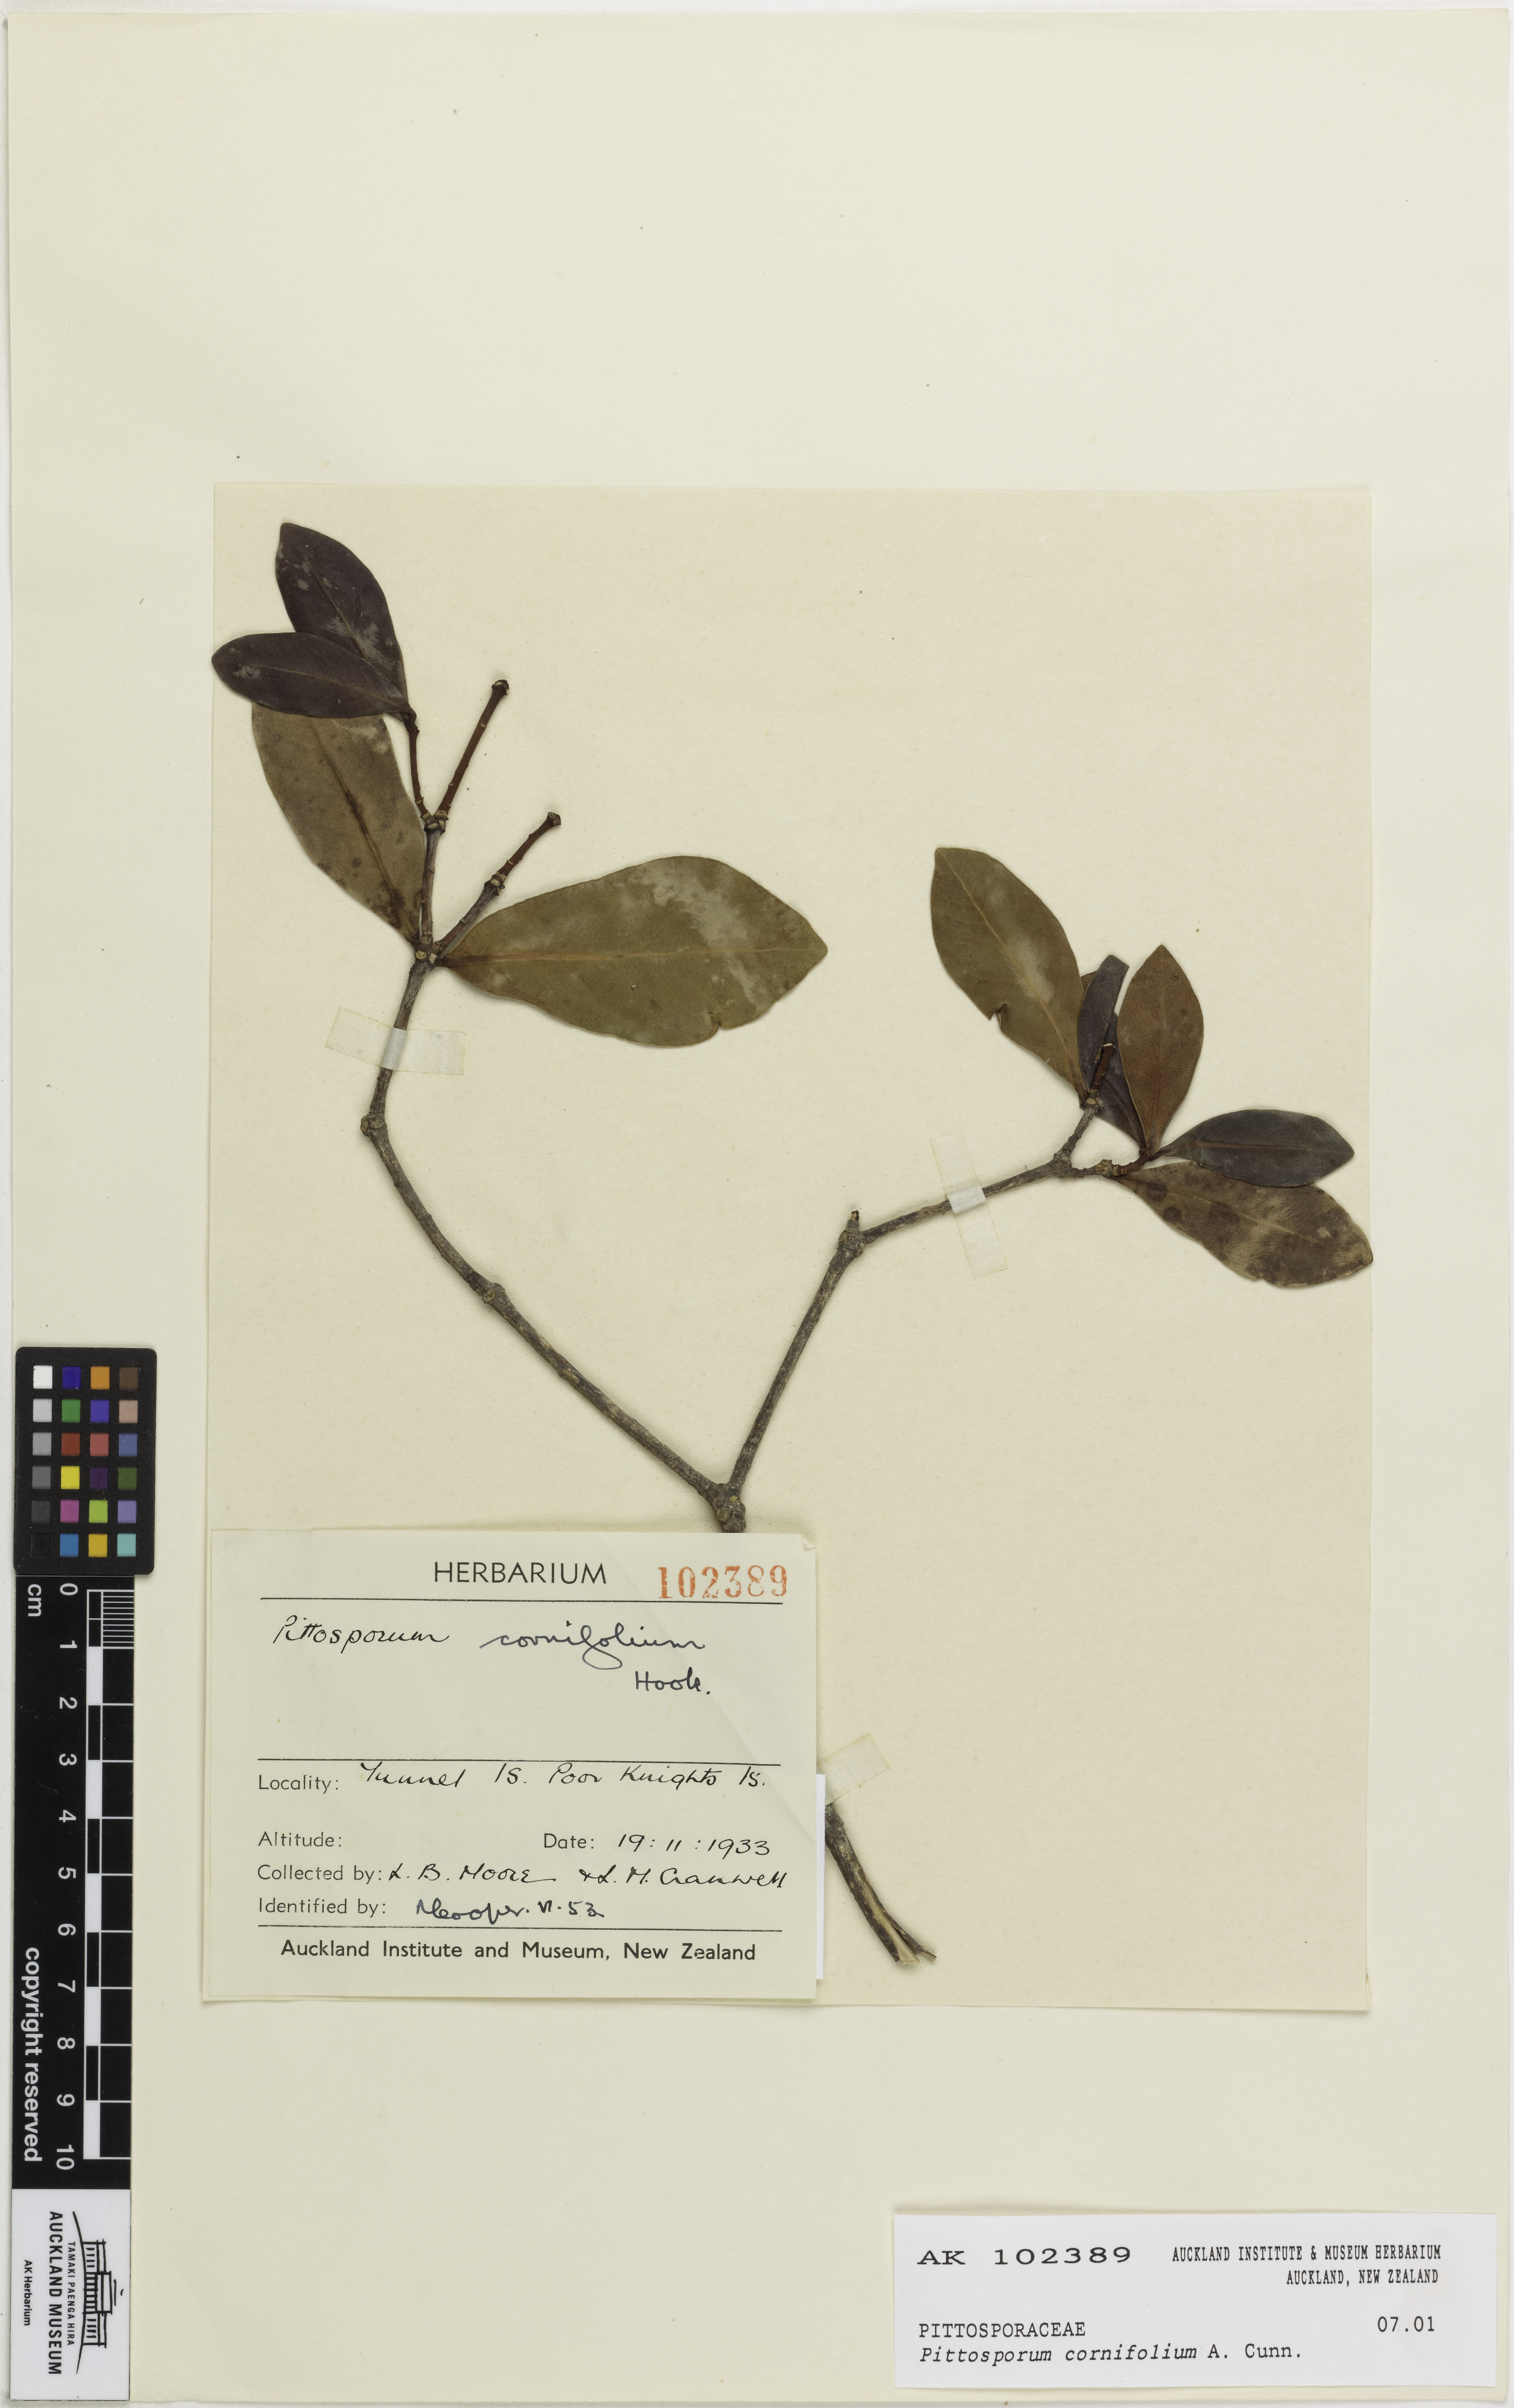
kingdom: Plantae
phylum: Tracheophyta
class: Magnoliopsida
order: Apiales
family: Pittosporaceae
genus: Pittosporum
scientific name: Pittosporum cornifolium
